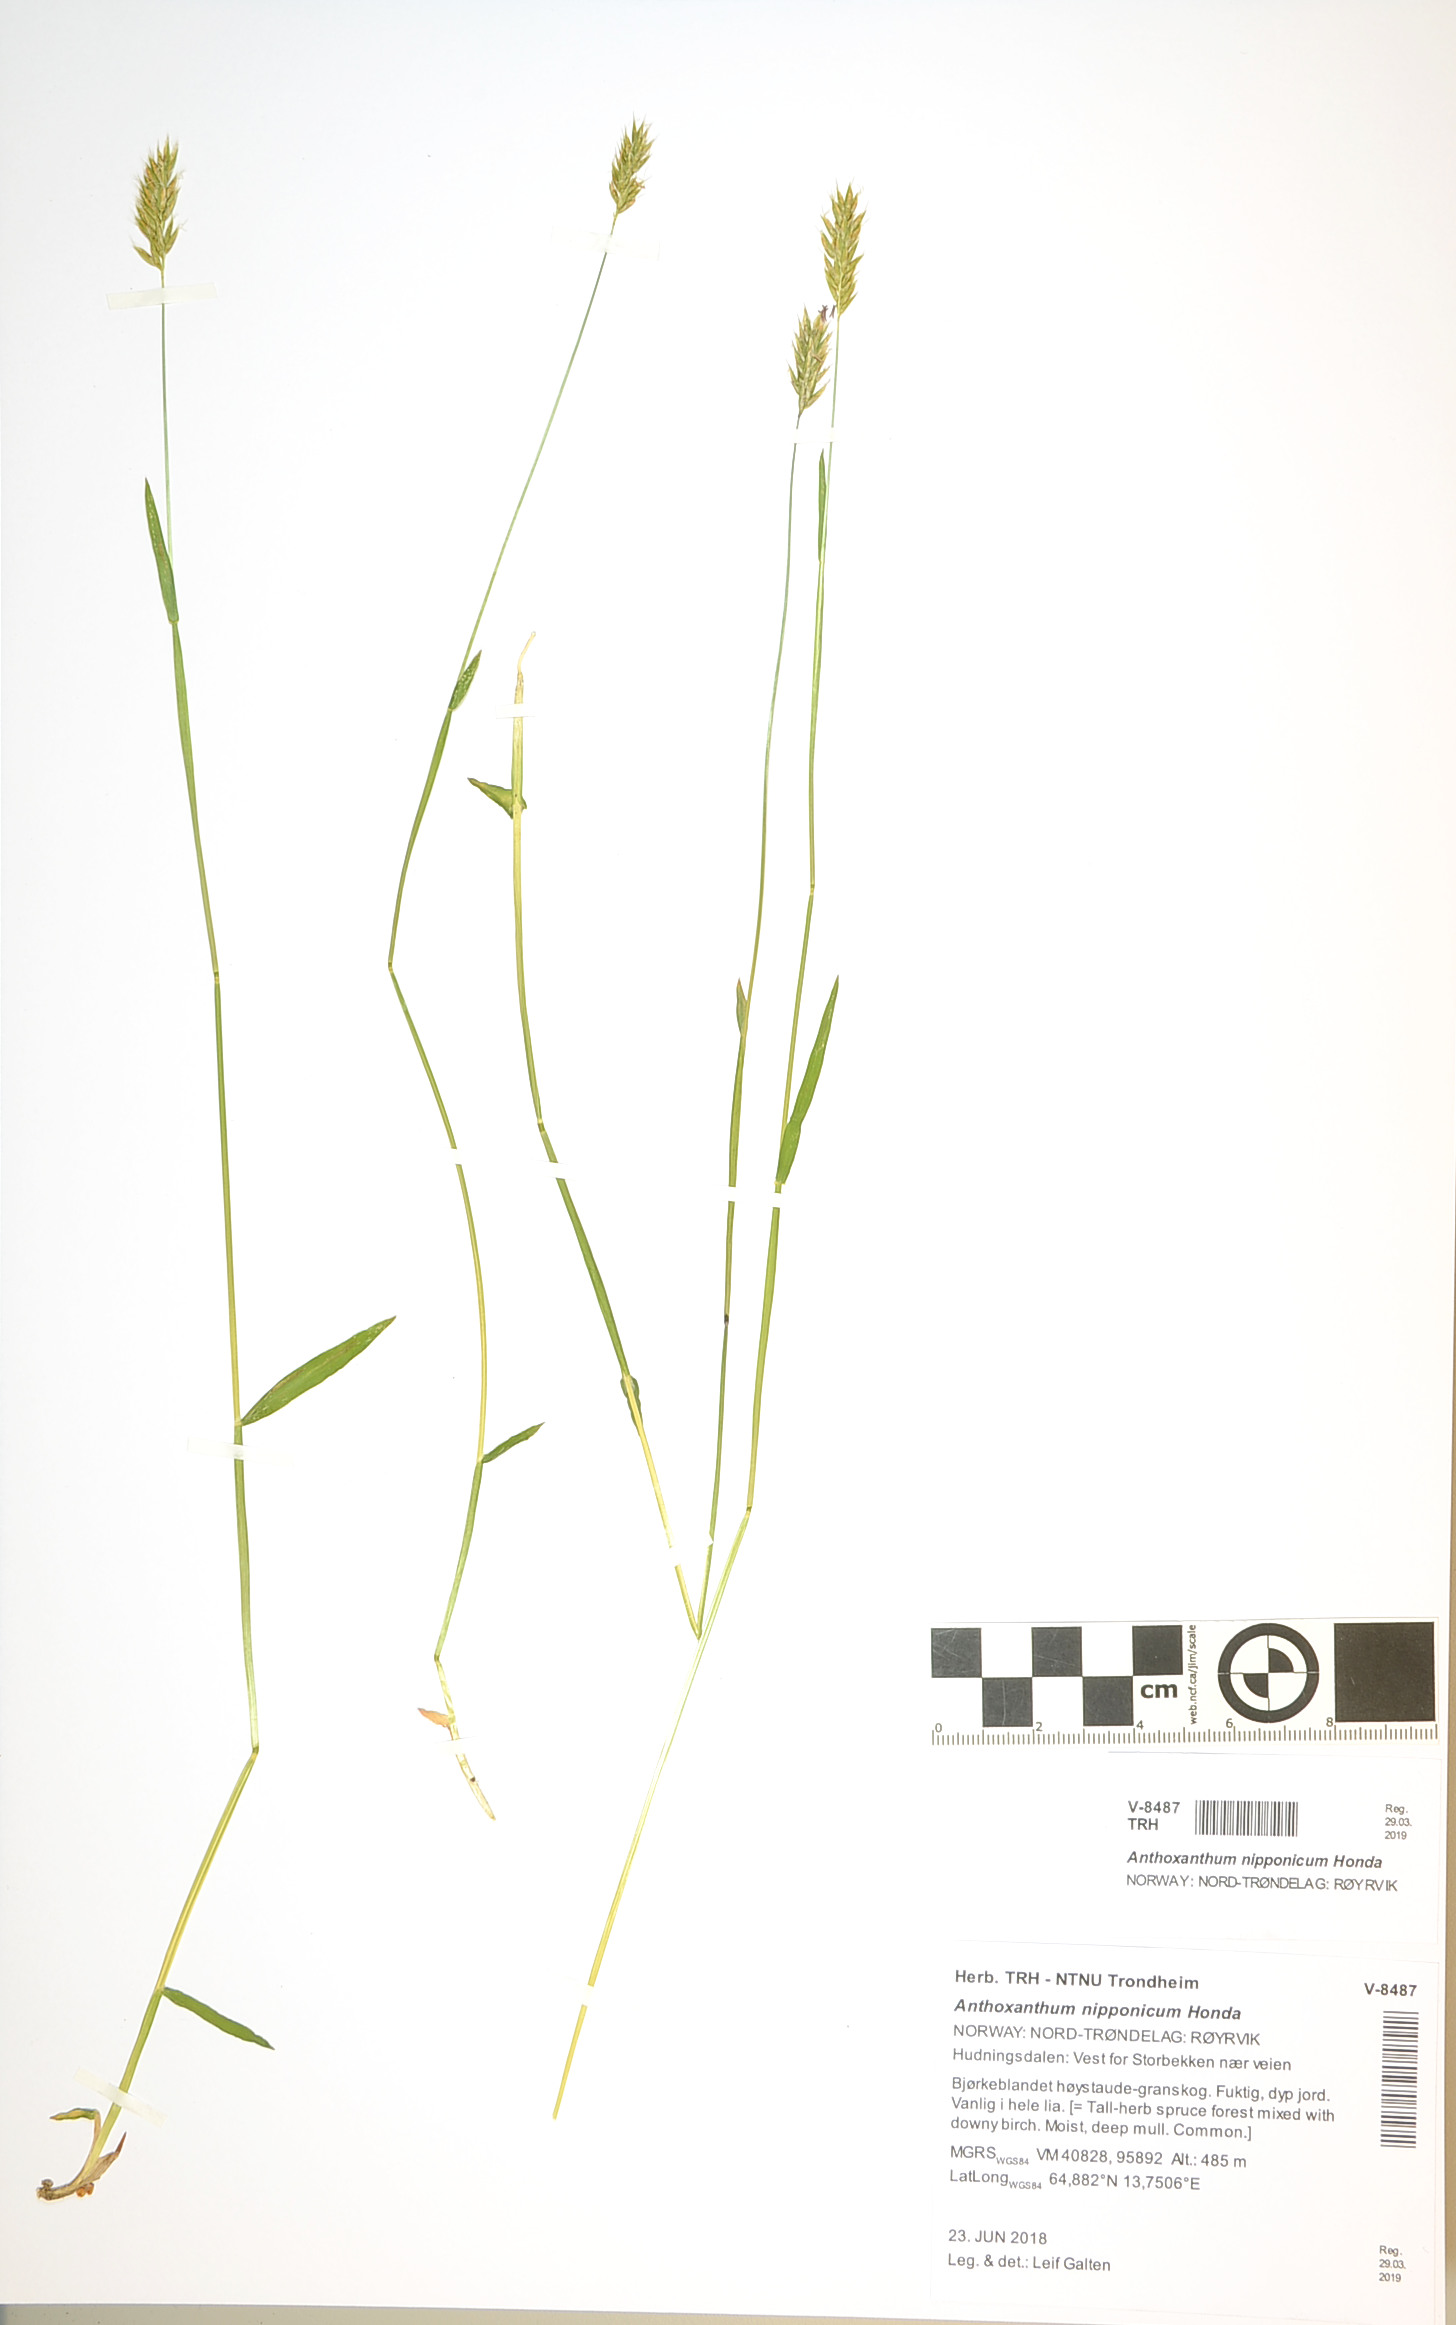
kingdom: Plantae
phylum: Tracheophyta
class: Liliopsida
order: Poales
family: Poaceae
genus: Anthoxanthum
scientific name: Anthoxanthum nipponicum
